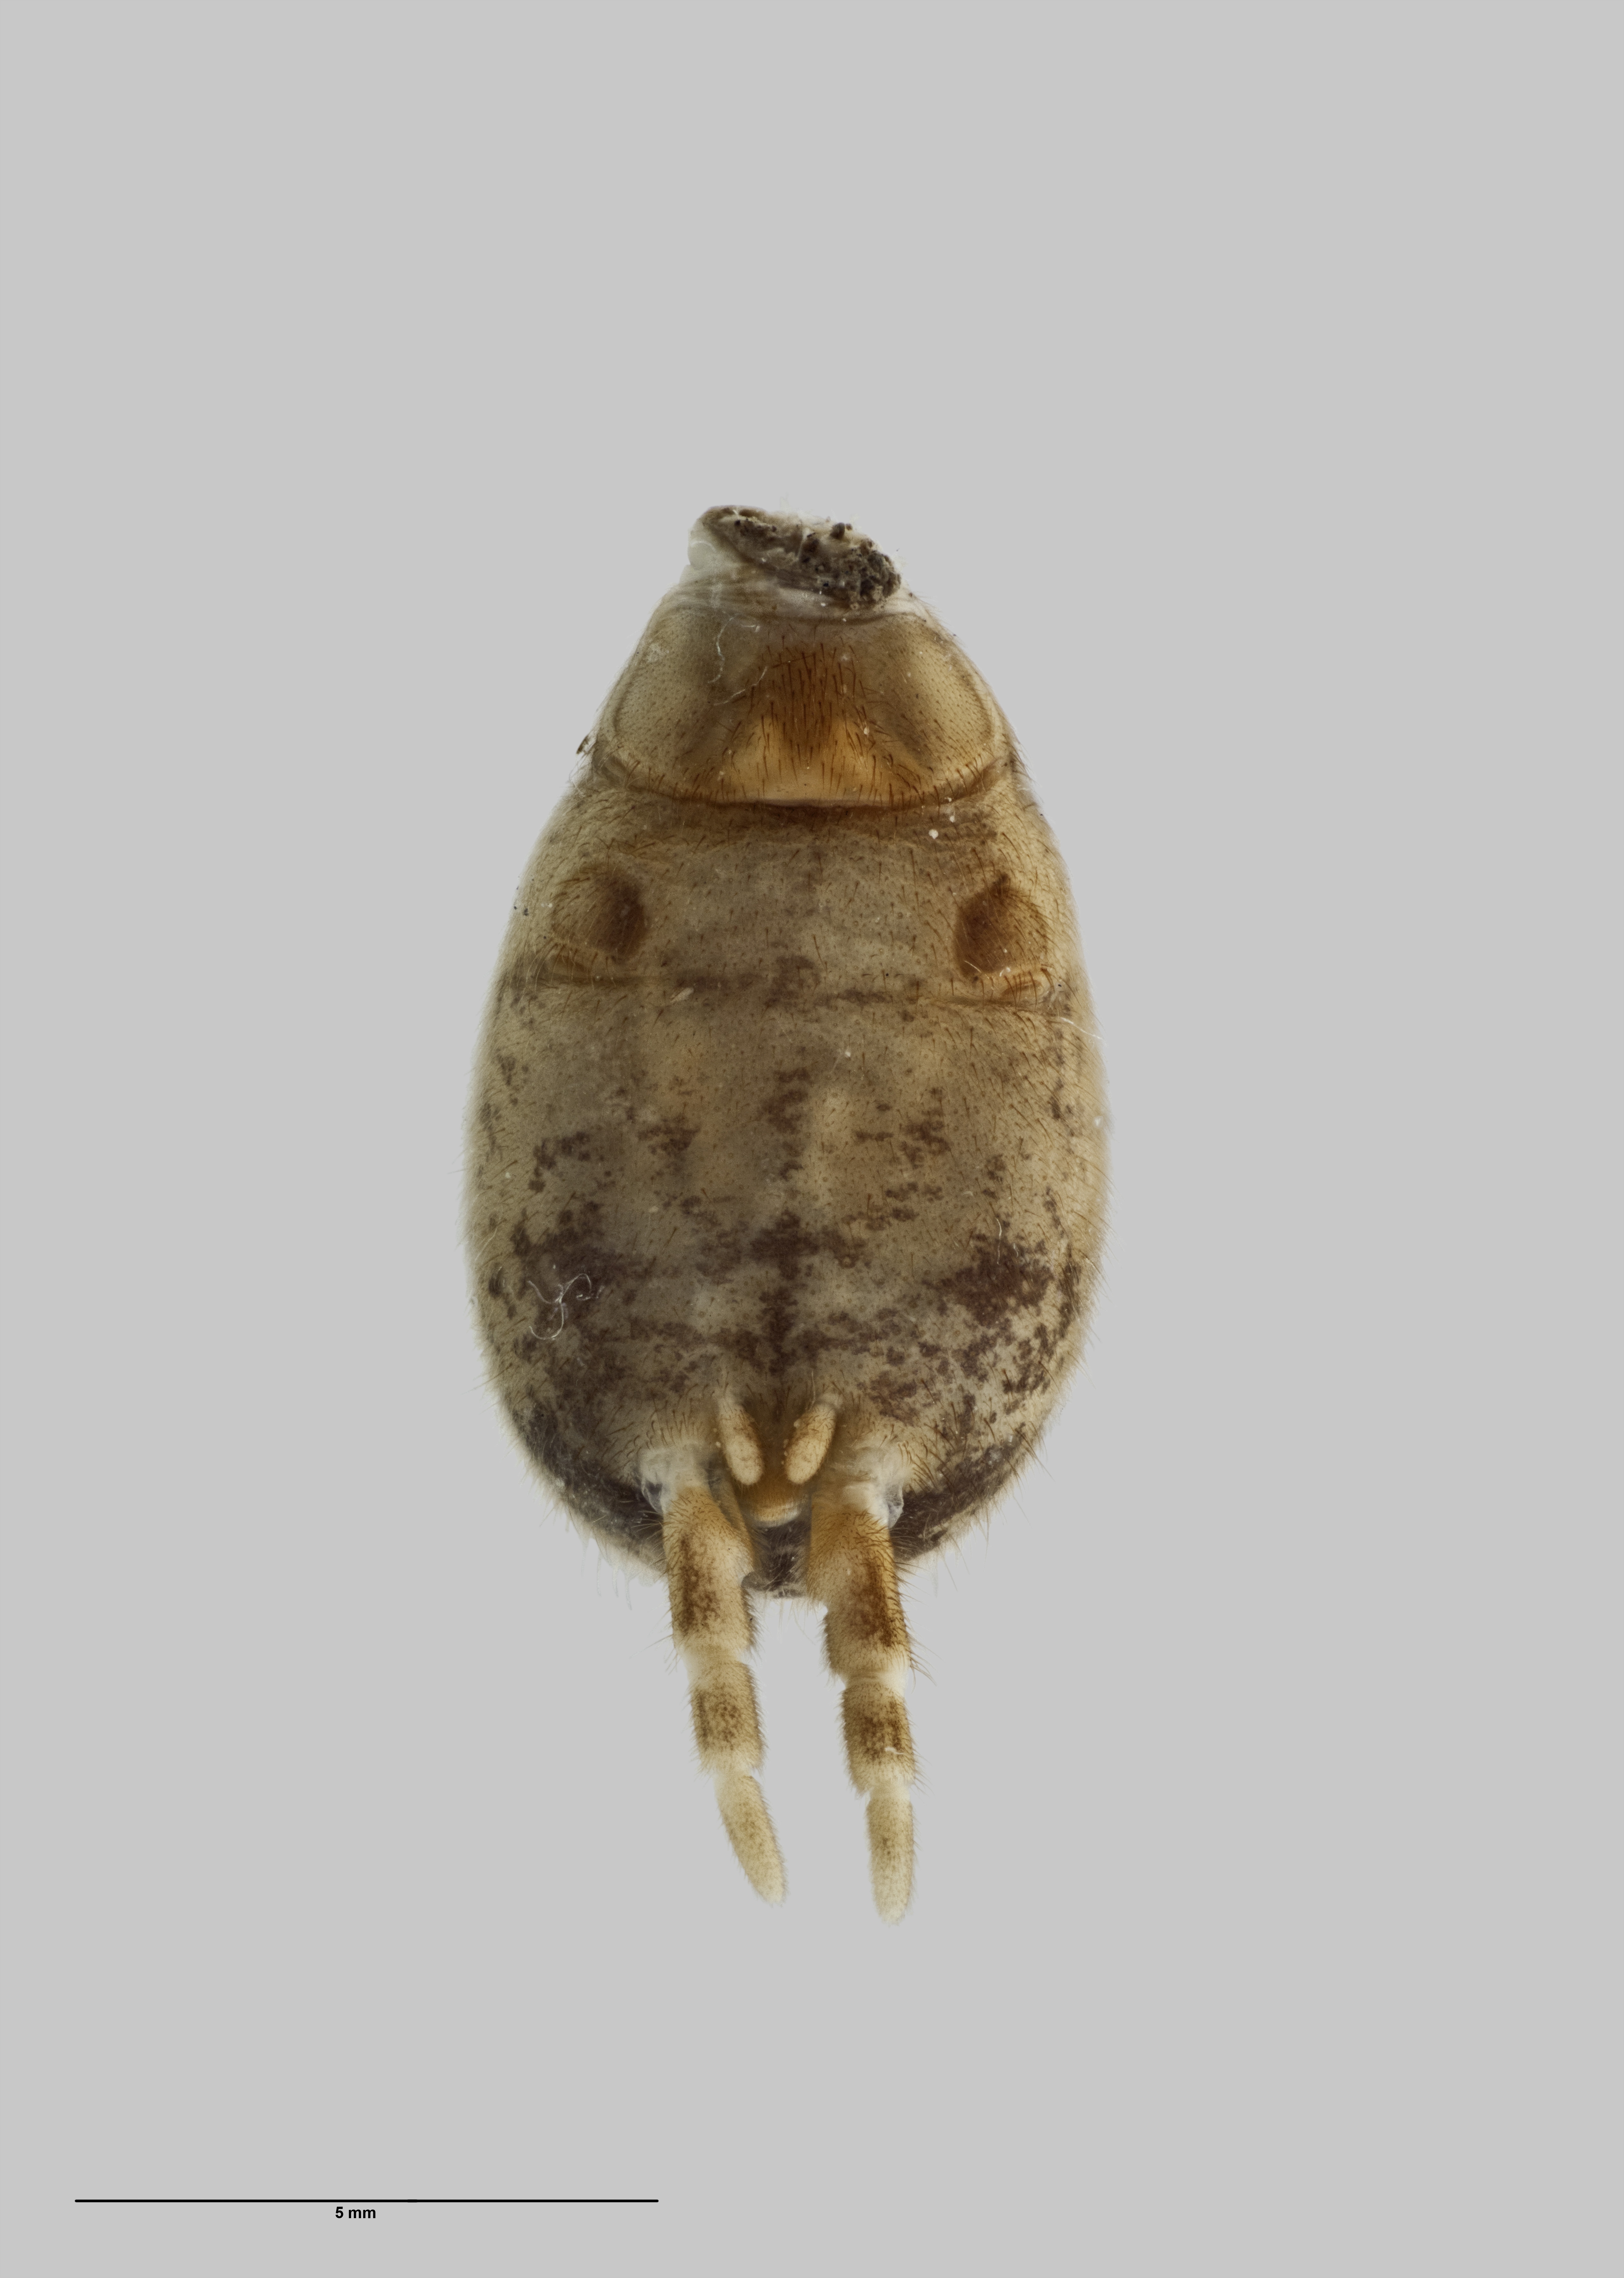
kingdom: Animalia
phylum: Arthropoda
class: Arachnida
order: Araneae
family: Pycnothelidae
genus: Stanwellia
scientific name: Stanwellia taranga
